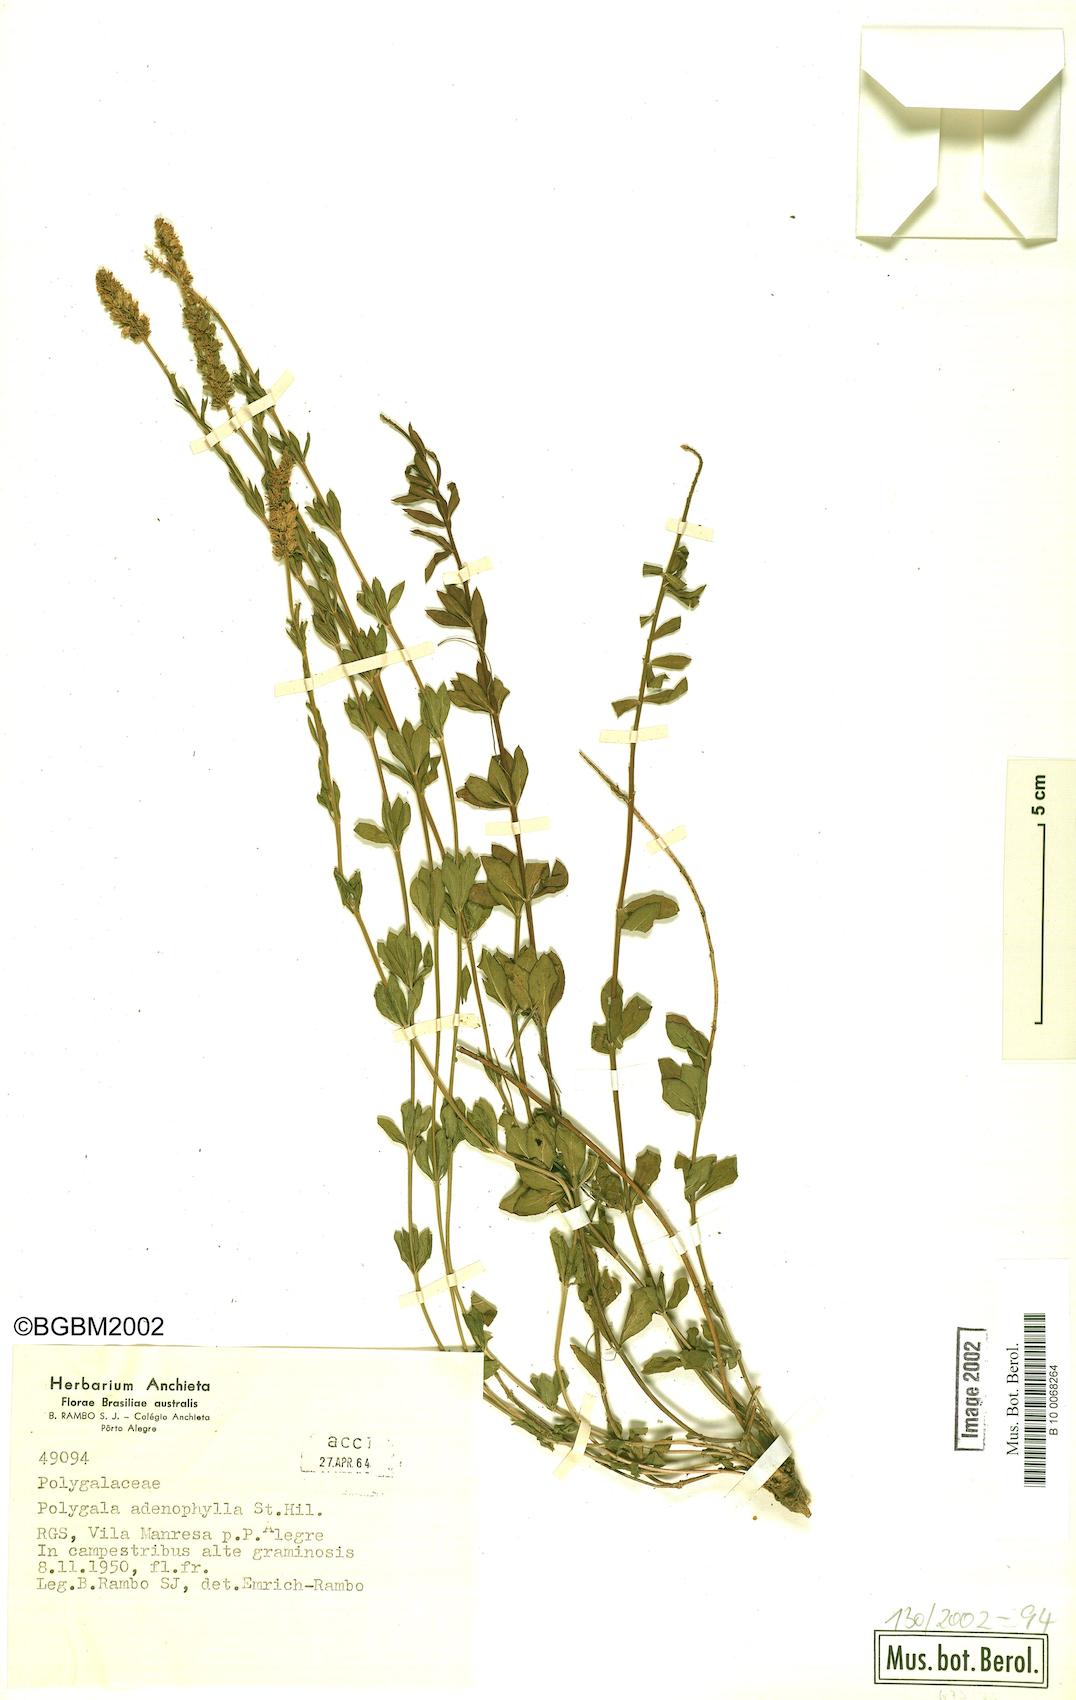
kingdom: Plantae
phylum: Tracheophyta
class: Magnoliopsida
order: Fabales
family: Polygalaceae
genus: Polygala
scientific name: Polygala adenophylla
